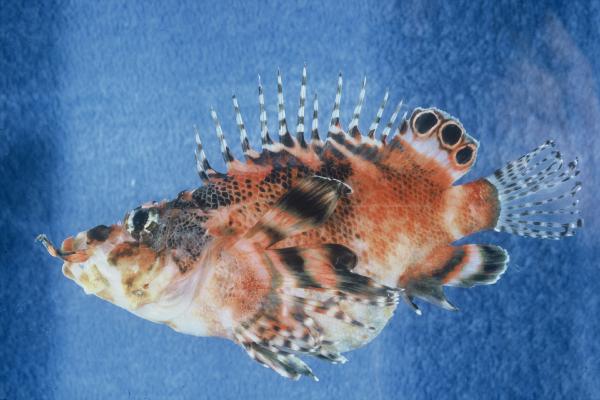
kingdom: Animalia
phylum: Chordata
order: Scorpaeniformes
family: Scorpaenidae
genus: Dendrochirus
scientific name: Dendrochirus biocellatus
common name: Twinspot lionfish
